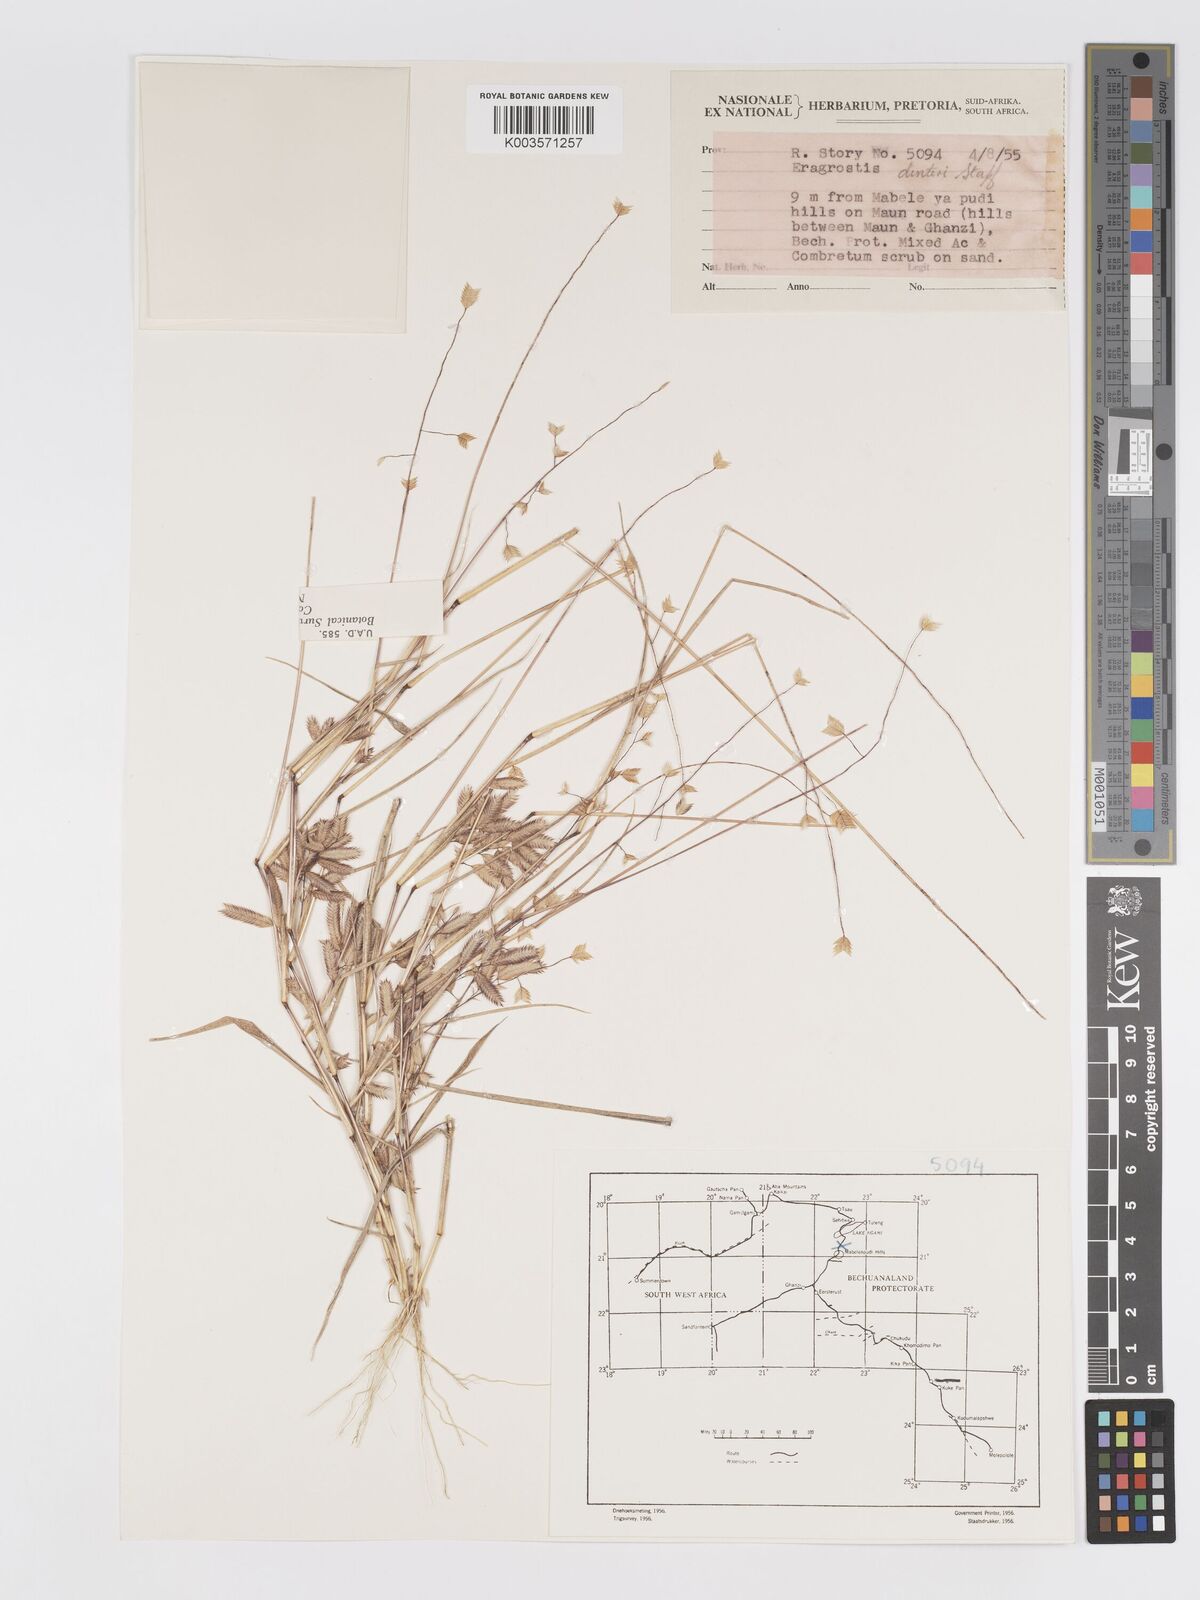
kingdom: Plantae
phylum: Tracheophyta
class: Liliopsida
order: Poales
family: Poaceae
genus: Eragrostis
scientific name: Eragrostis dinteri
